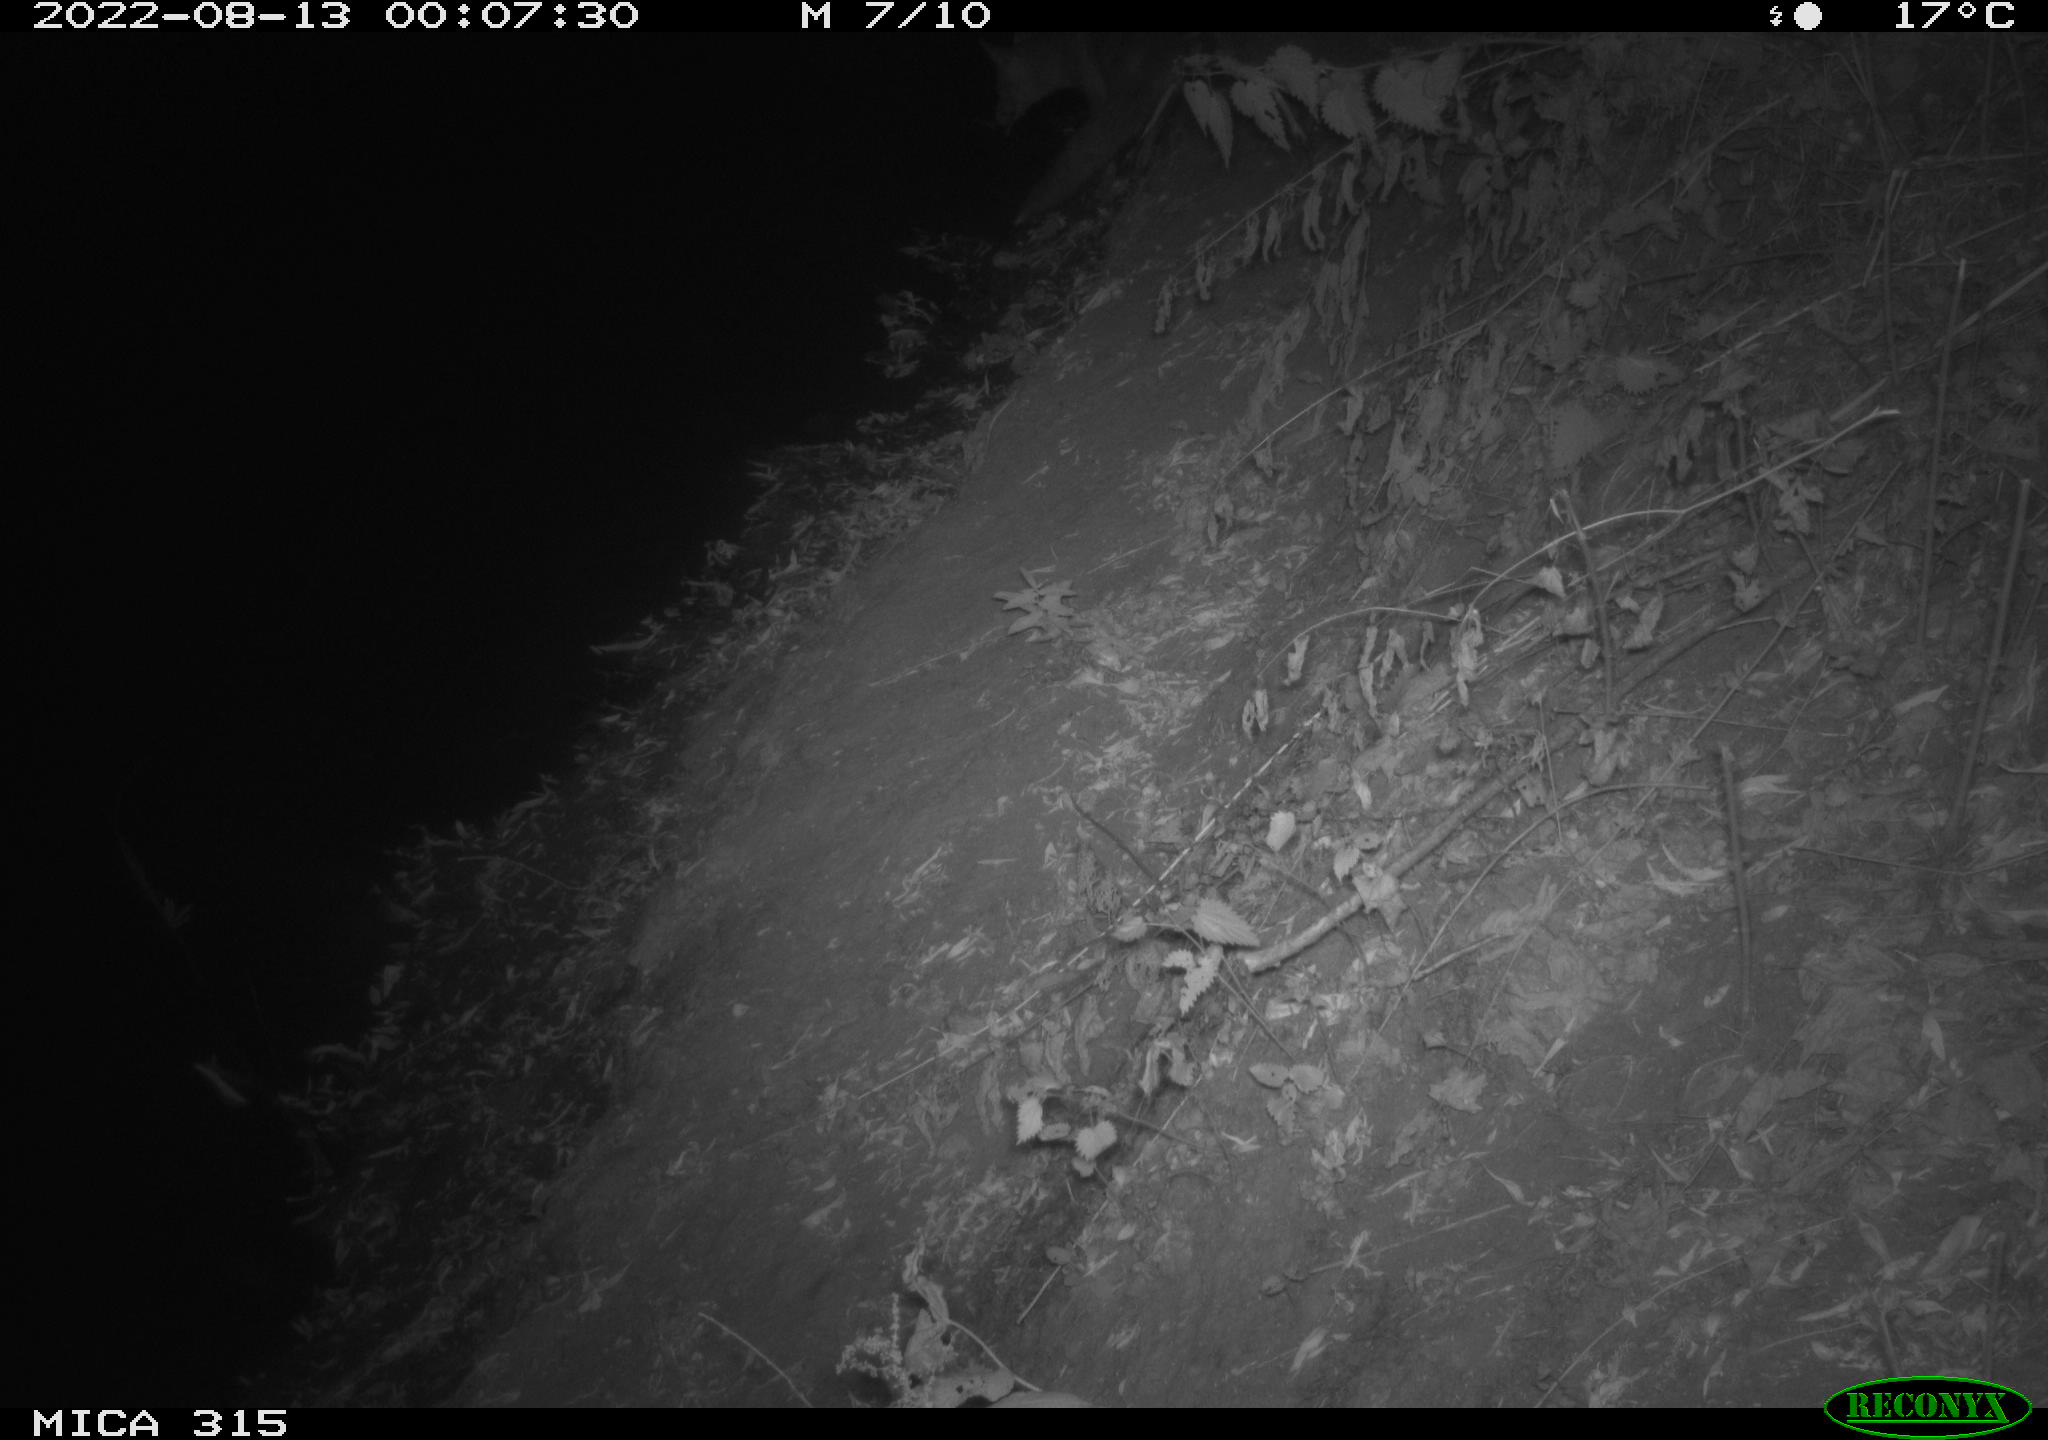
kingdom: Animalia
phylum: Chordata
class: Mammalia
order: Carnivora
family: Canidae
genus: Vulpes
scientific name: Vulpes vulpes
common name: Red fox
